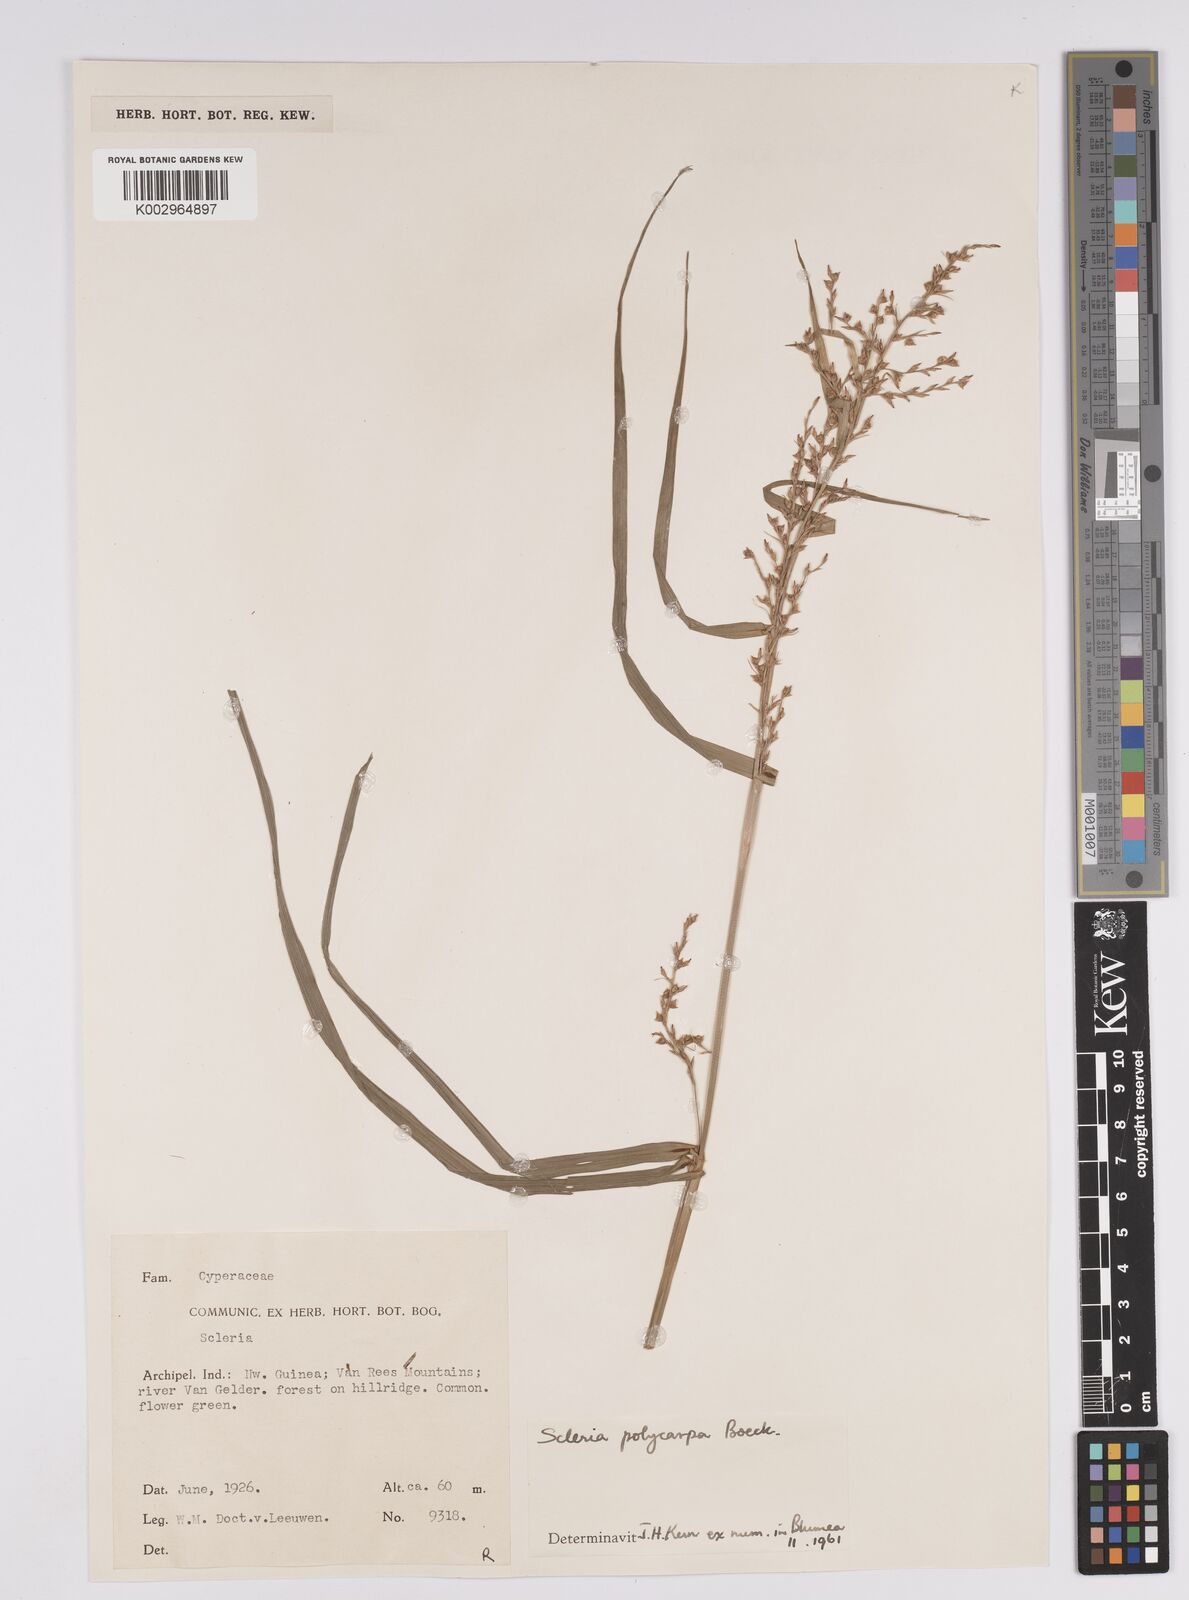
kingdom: Plantae
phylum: Tracheophyta
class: Liliopsida
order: Poales
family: Cyperaceae
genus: Scleria
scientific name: Scleria polycarpa
